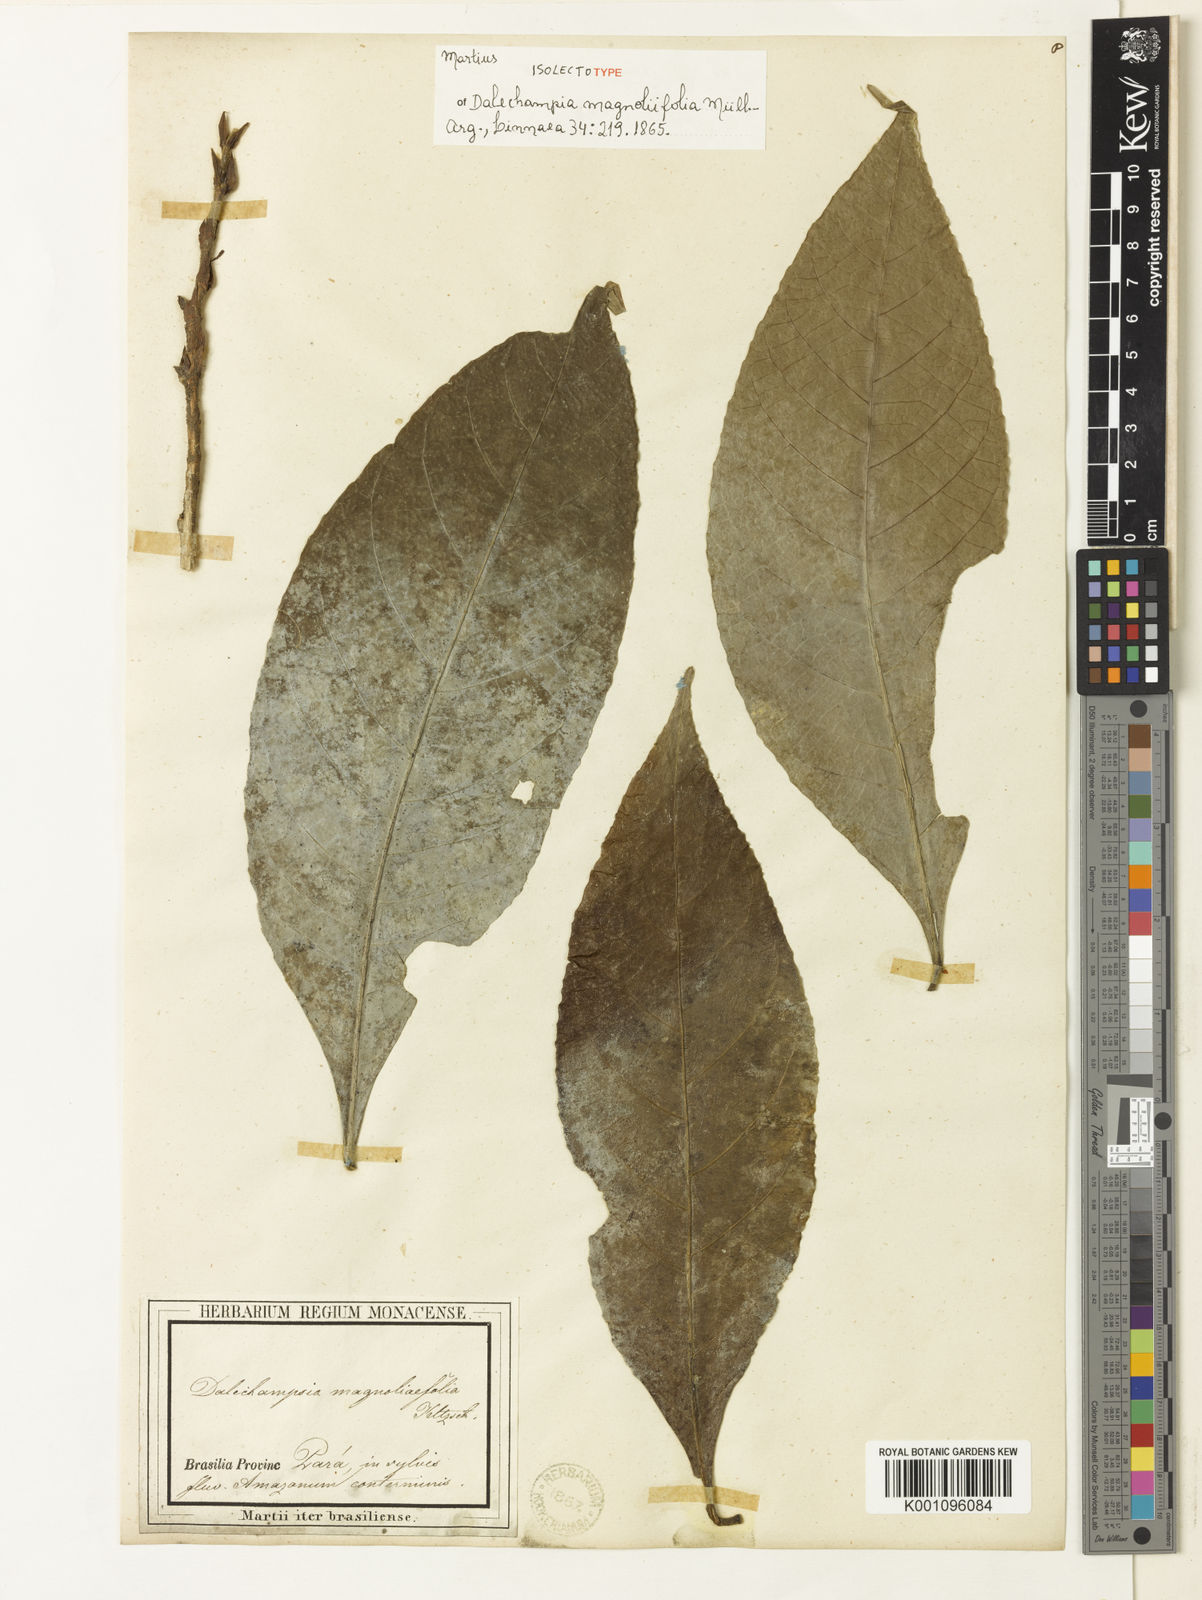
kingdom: Plantae
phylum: Tracheophyta
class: Magnoliopsida
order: Malpighiales
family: Euphorbiaceae
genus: Dalechampia
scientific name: Dalechampia
